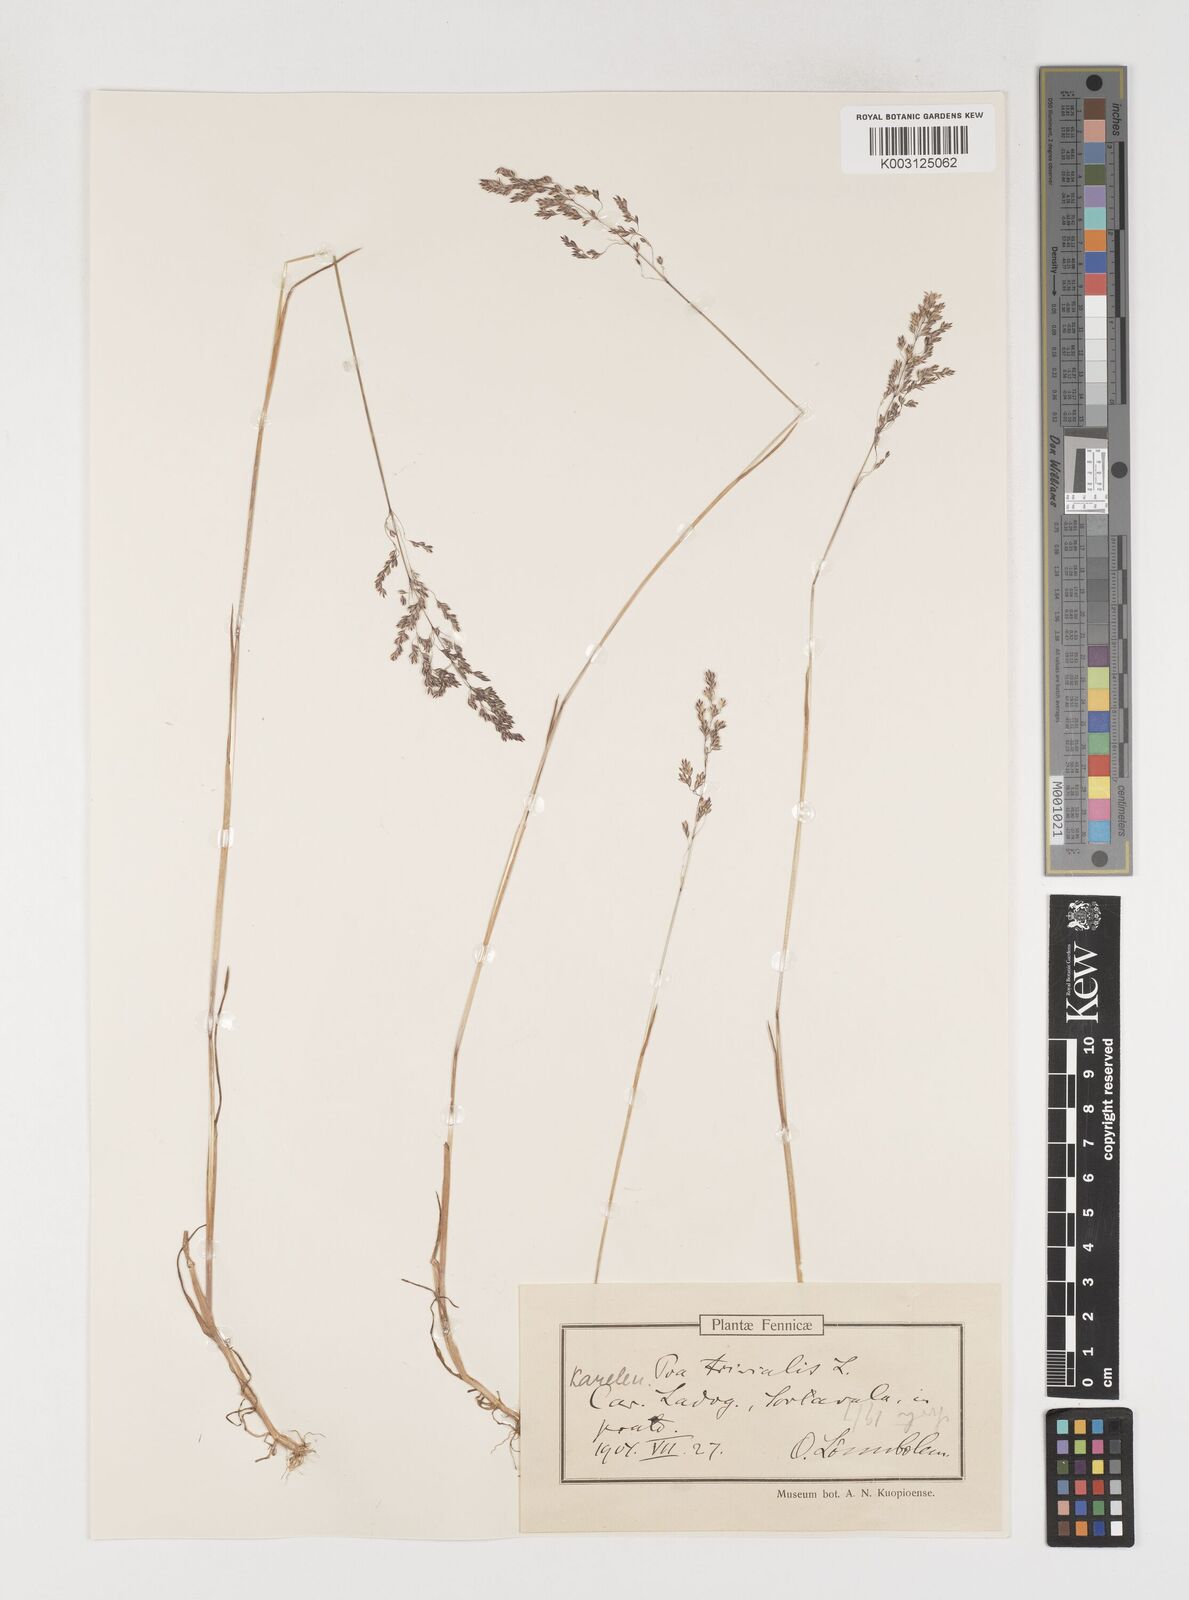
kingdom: Plantae
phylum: Tracheophyta
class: Liliopsida
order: Poales
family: Poaceae
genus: Poa
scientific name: Poa trivialis
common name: Rough bluegrass
